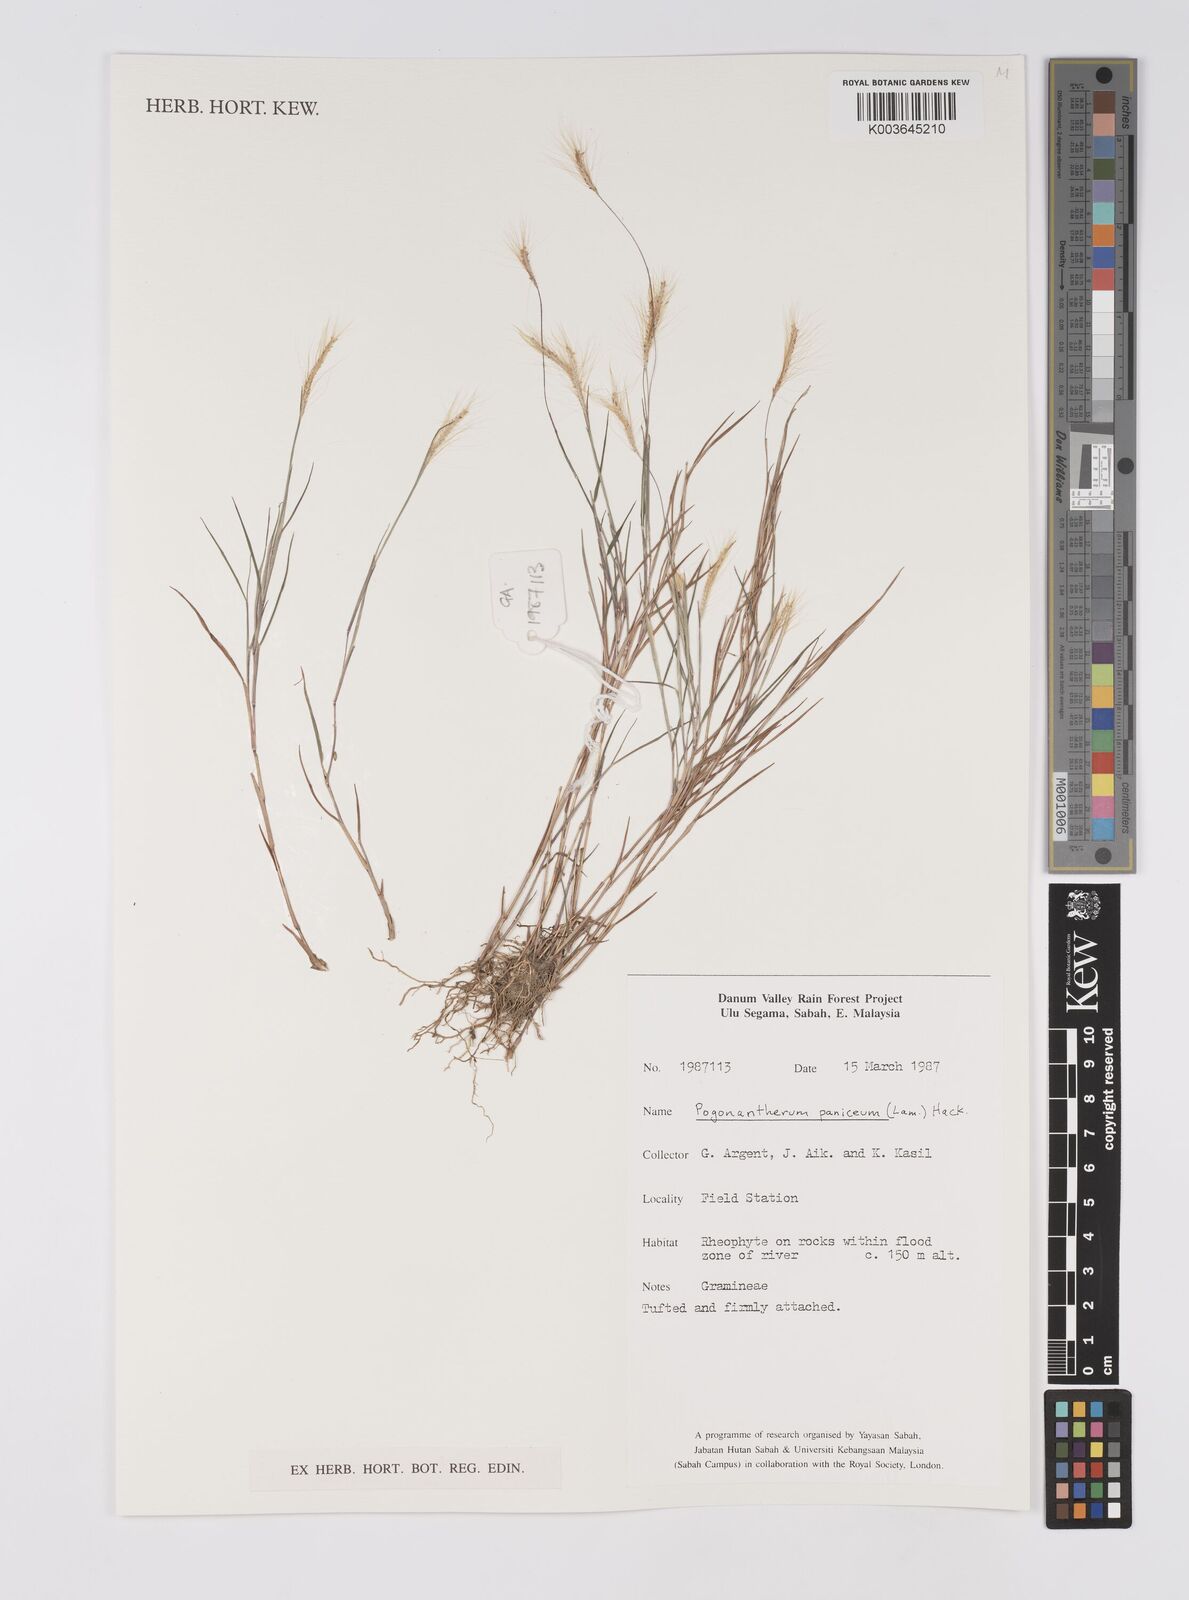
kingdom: Plantae
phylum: Tracheophyta
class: Liliopsida
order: Poales
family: Poaceae
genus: Pogonatherum
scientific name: Pogonatherum paniceum
